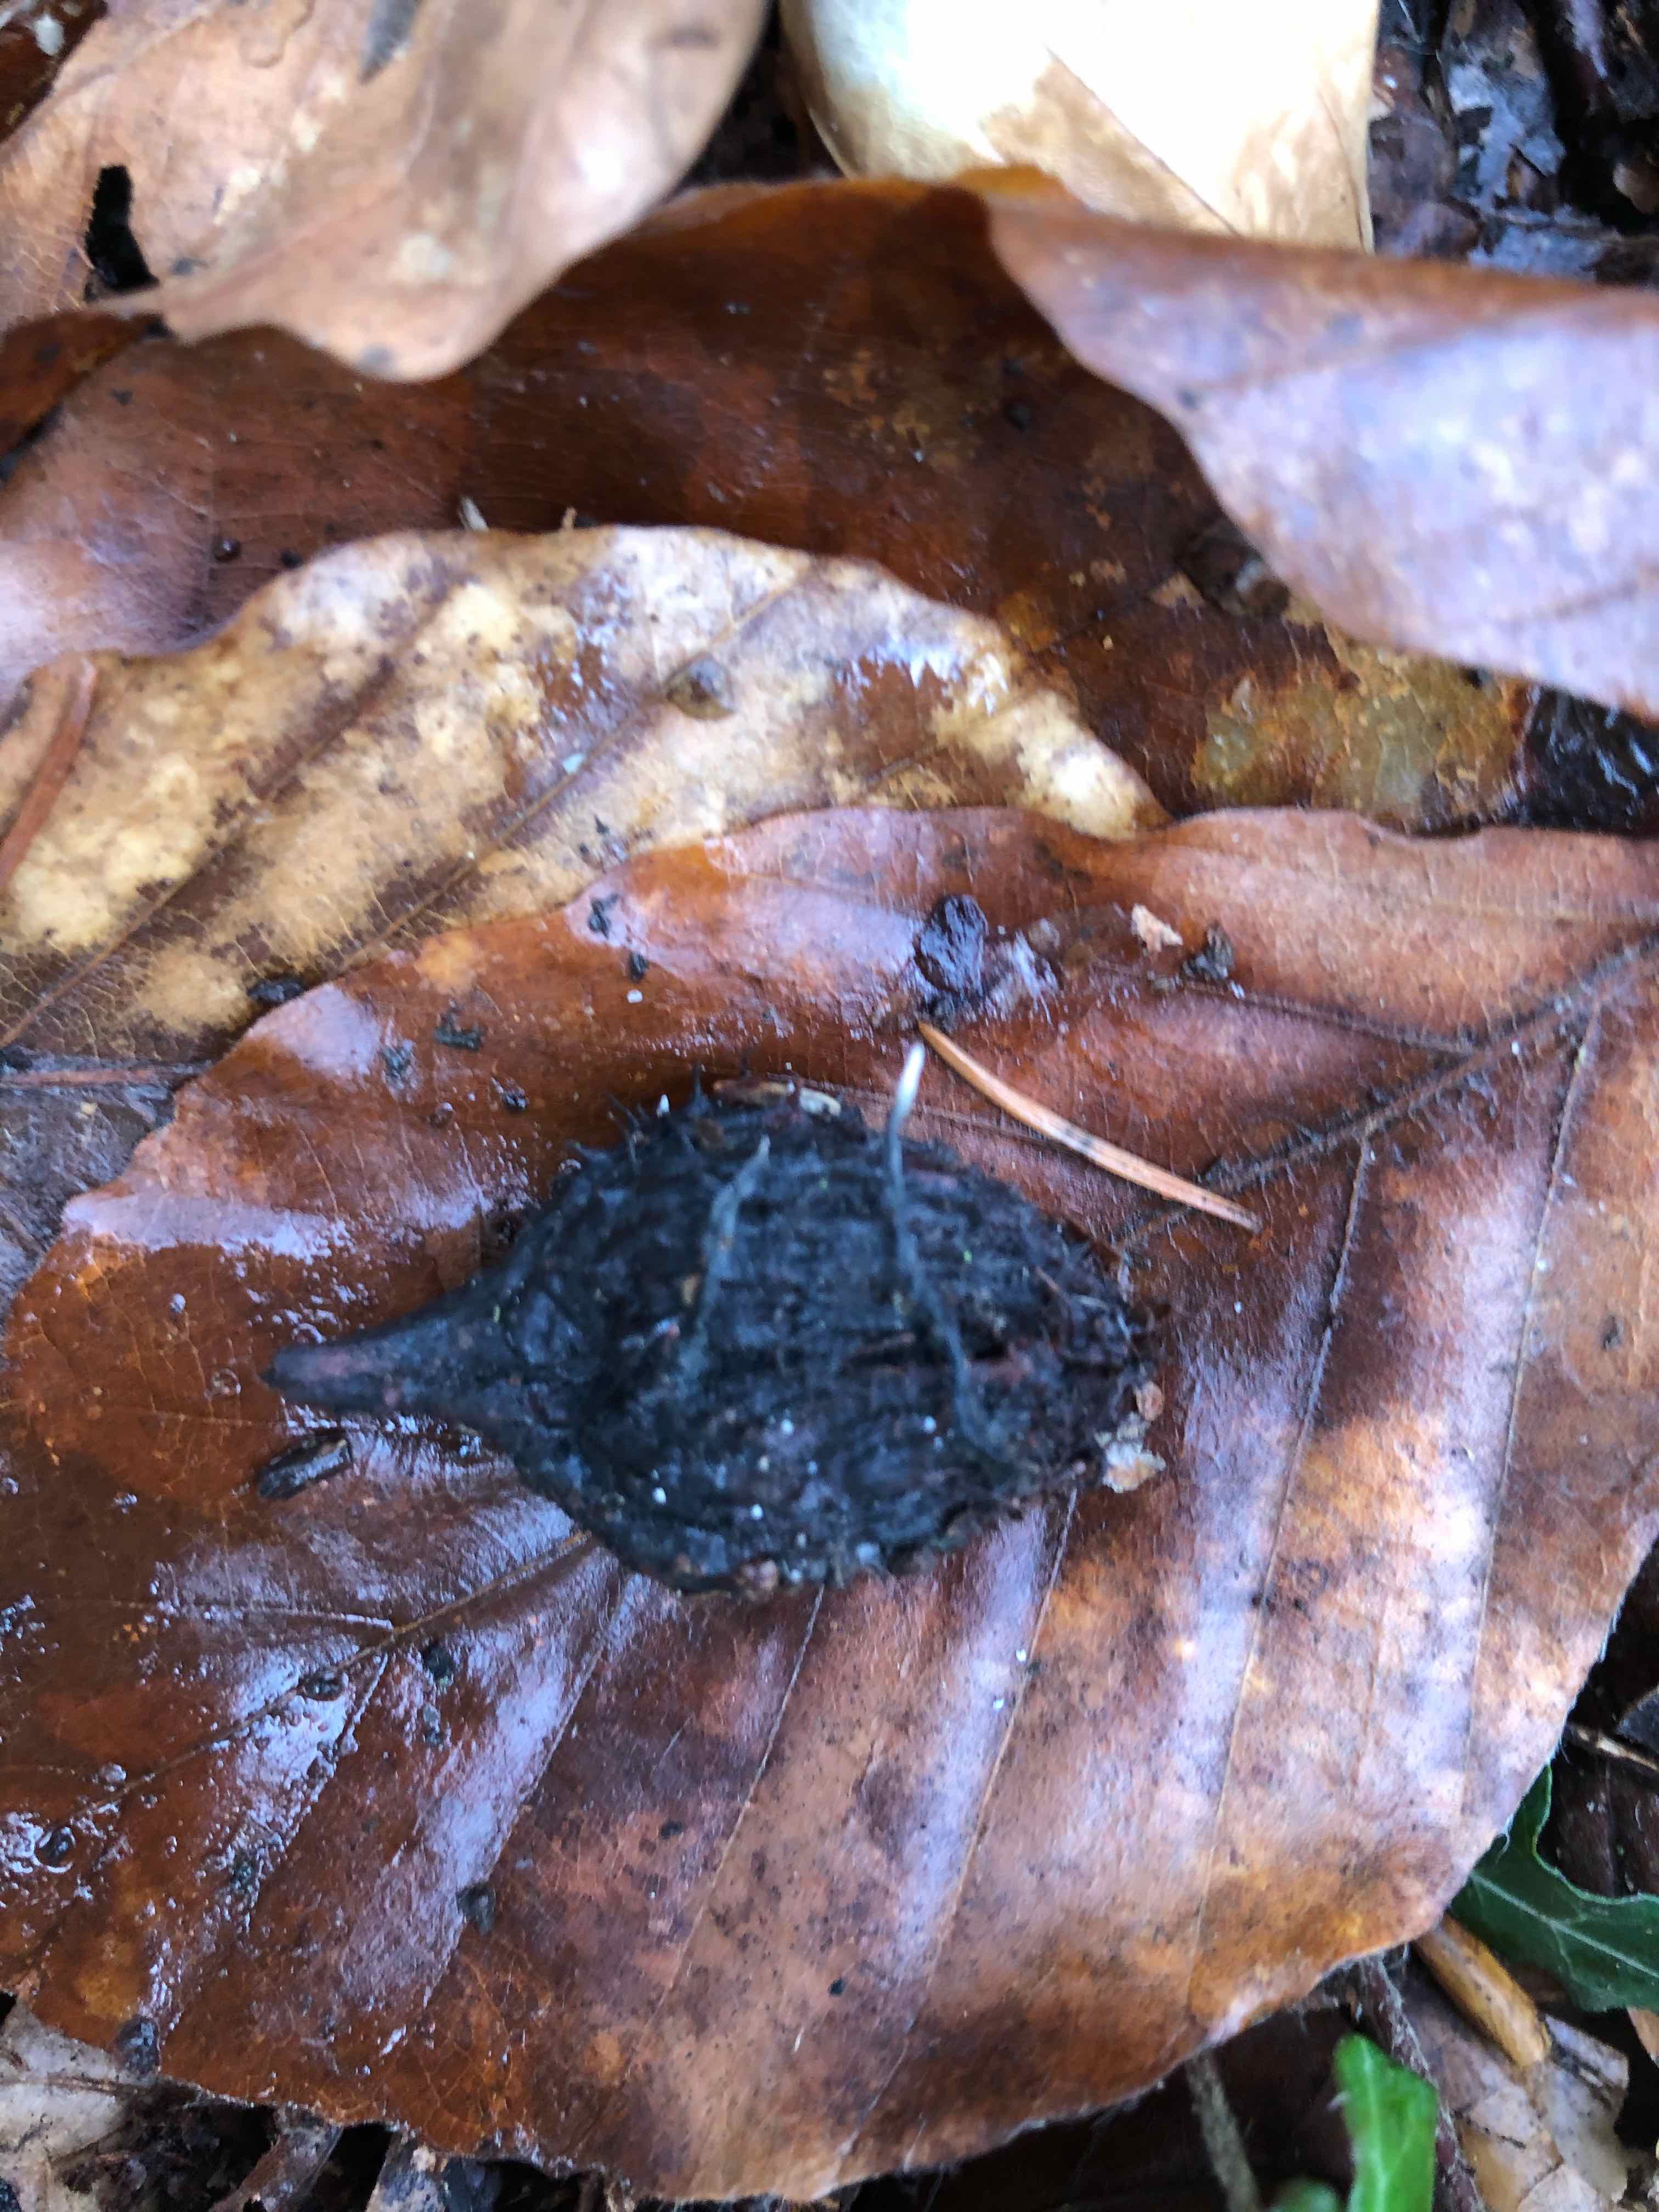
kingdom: Fungi
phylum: Ascomycota
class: Sordariomycetes
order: Xylariales
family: Xylariaceae
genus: Xylaria
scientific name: Xylaria carpophila
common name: bogskål-stødsvamp
